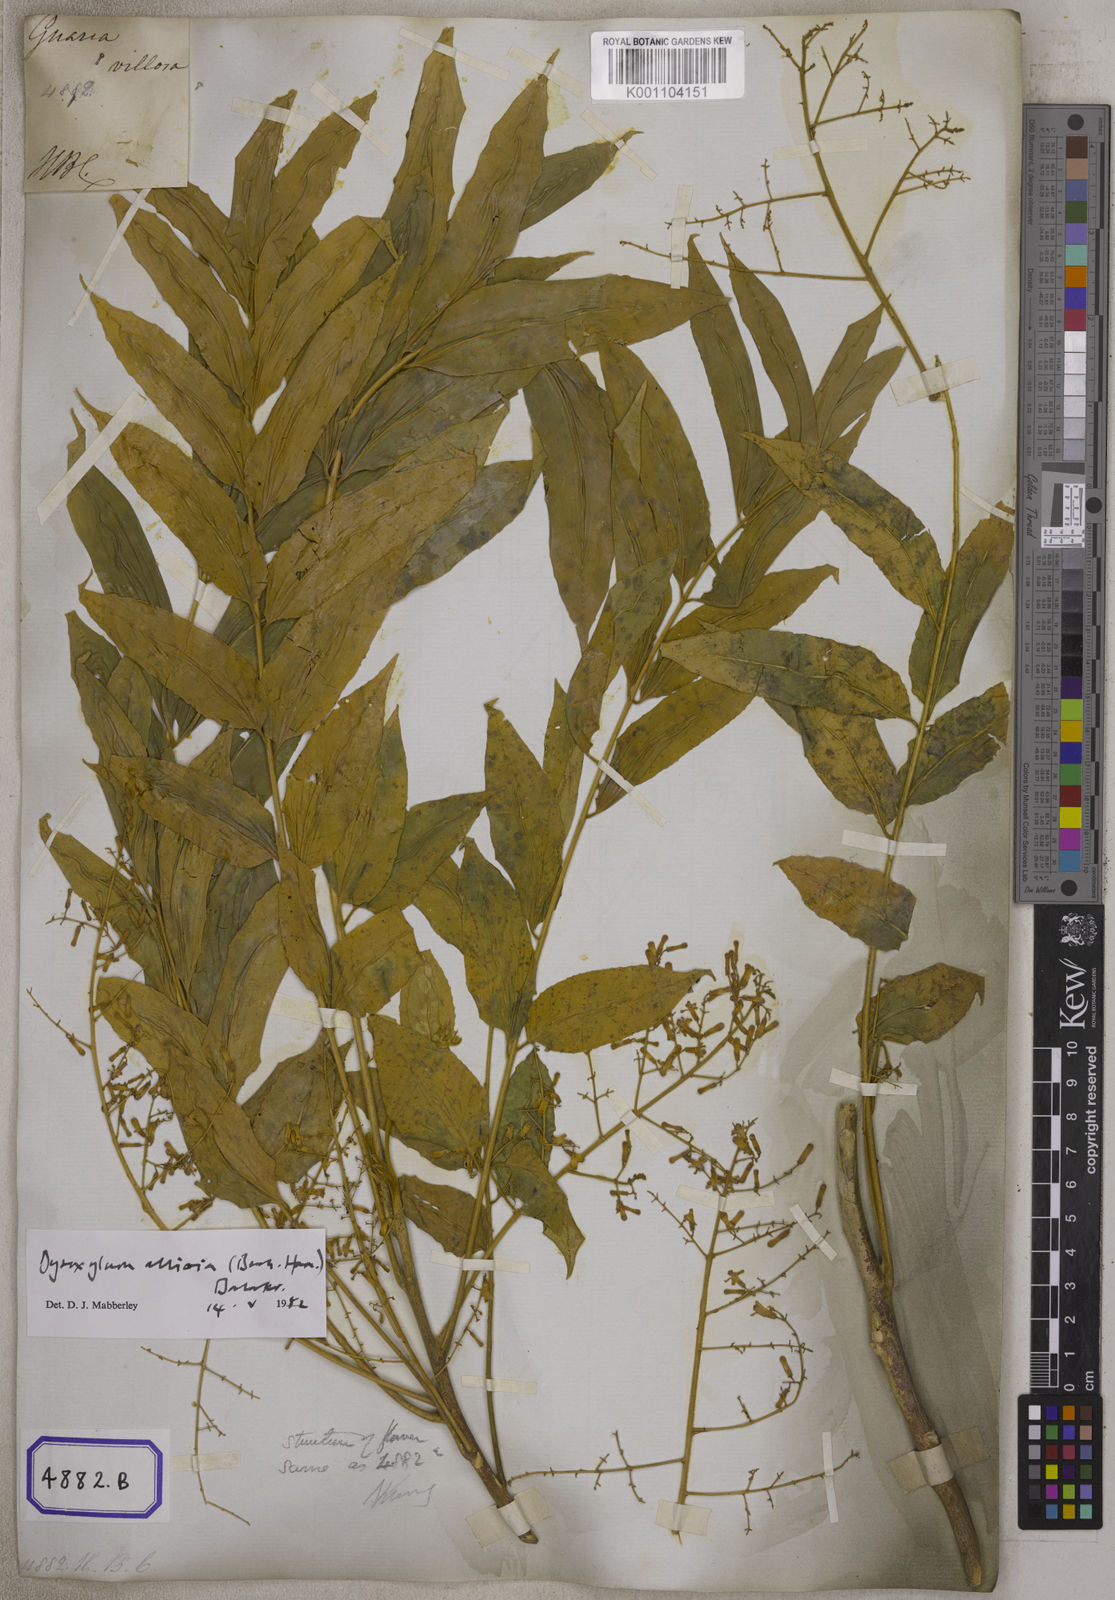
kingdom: Plantae
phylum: Tracheophyta
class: Magnoliopsida
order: Sapindales
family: Meliaceae
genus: Guarea
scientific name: Guarea
